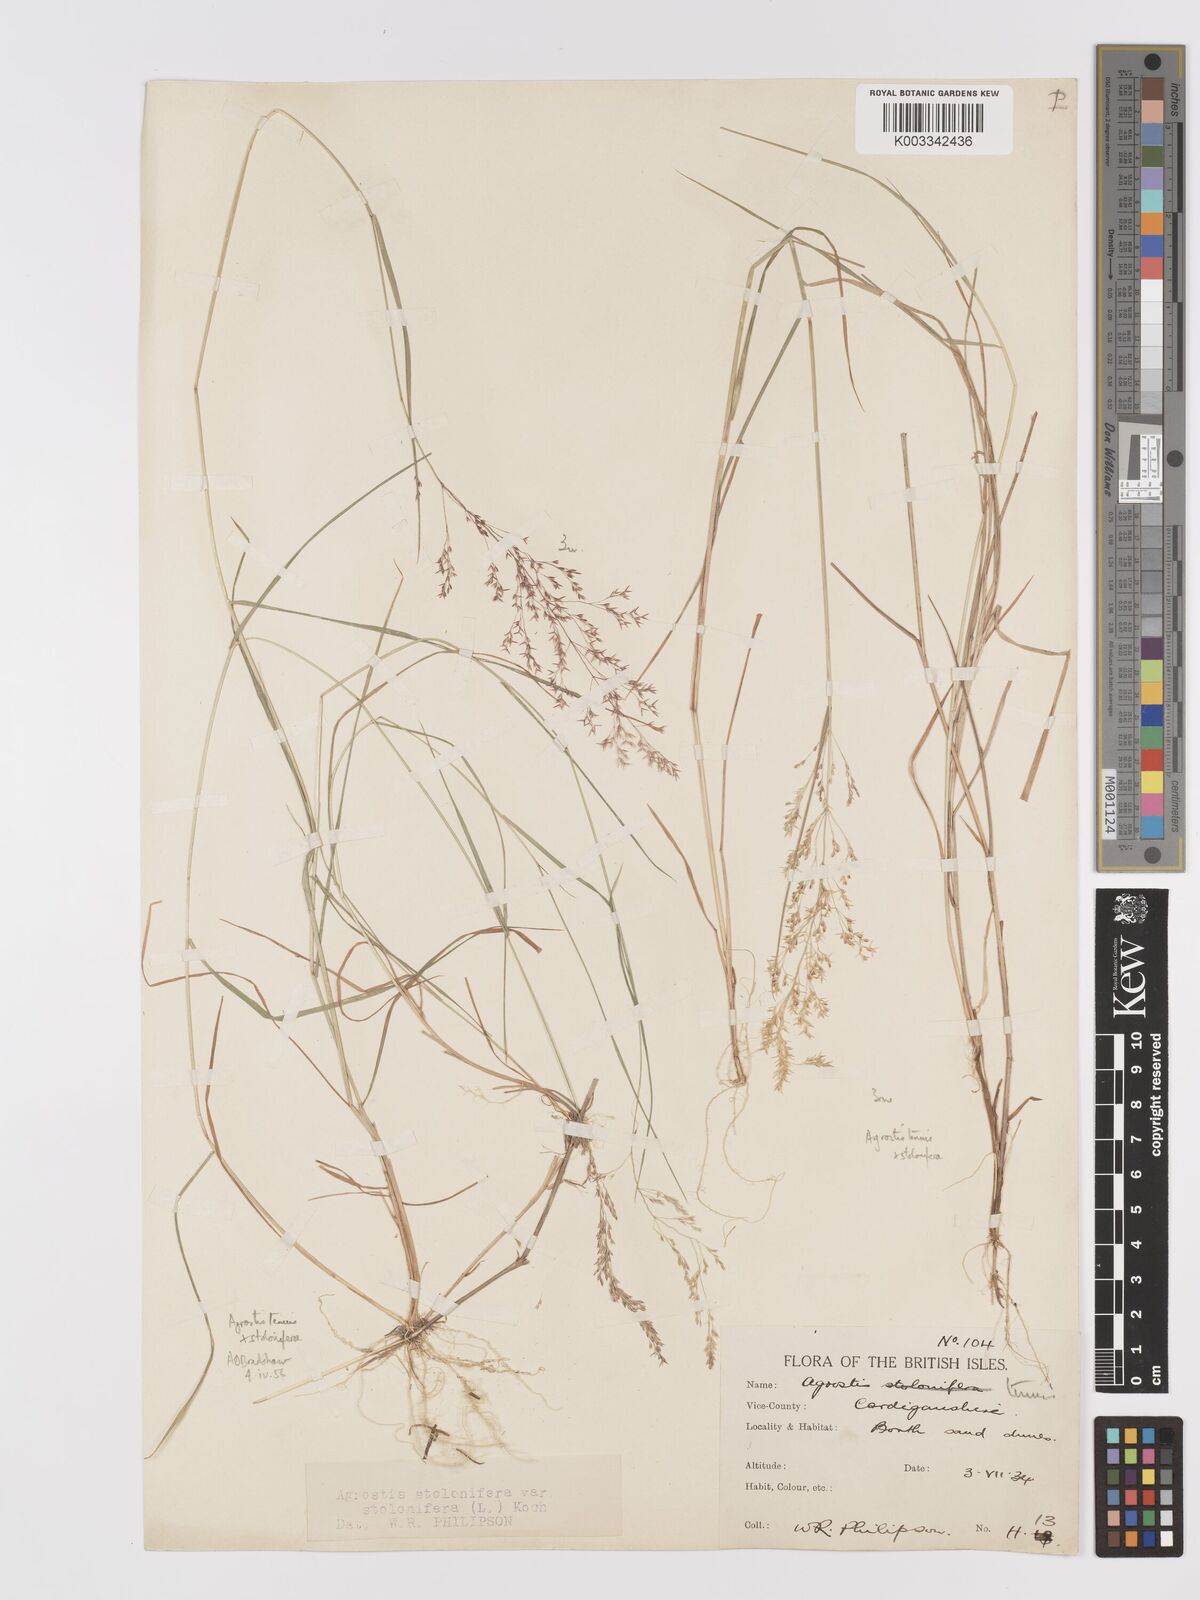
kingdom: Plantae
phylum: Tracheophyta
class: Liliopsida
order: Poales
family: Poaceae
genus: Agrostis
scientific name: Agrostis capillaris
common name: Colonial bentgrass
